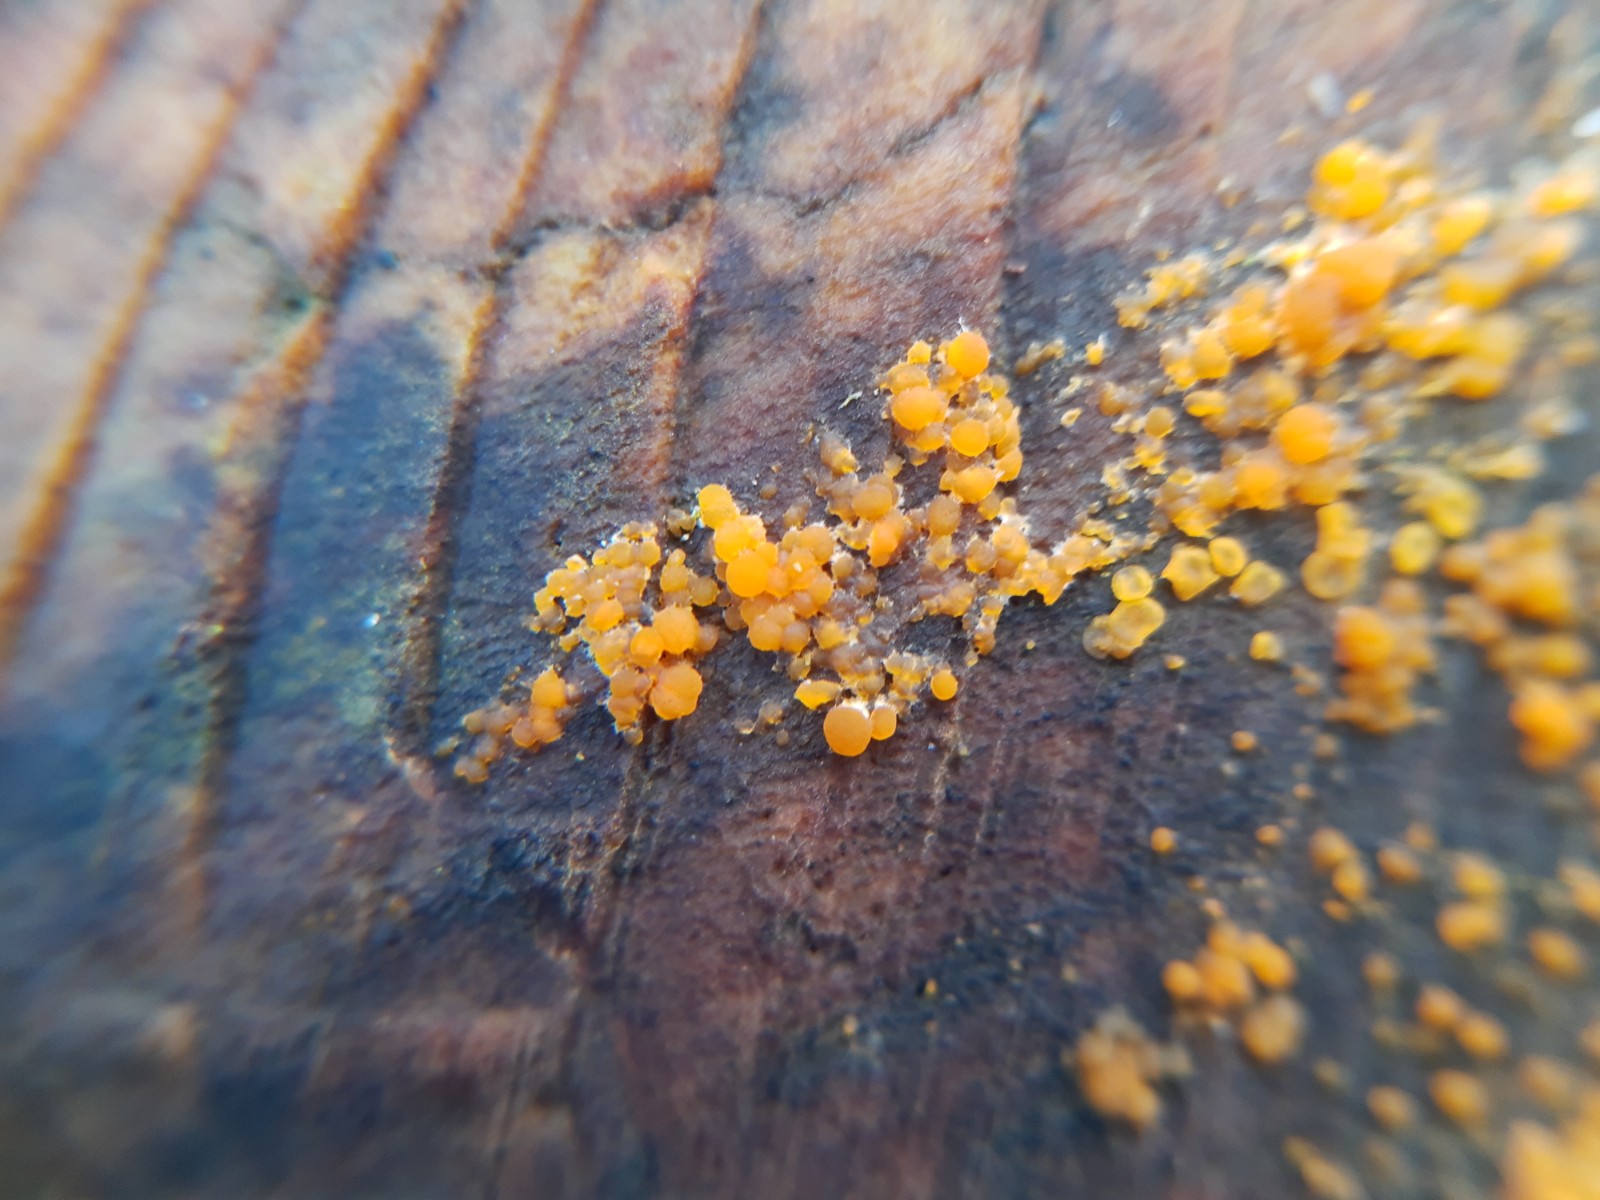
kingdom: Fungi
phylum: Basidiomycota
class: Dacrymycetes
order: Dacrymycetales
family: Dacrymycetaceae
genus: Dacrymyces
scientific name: Dacrymyces
